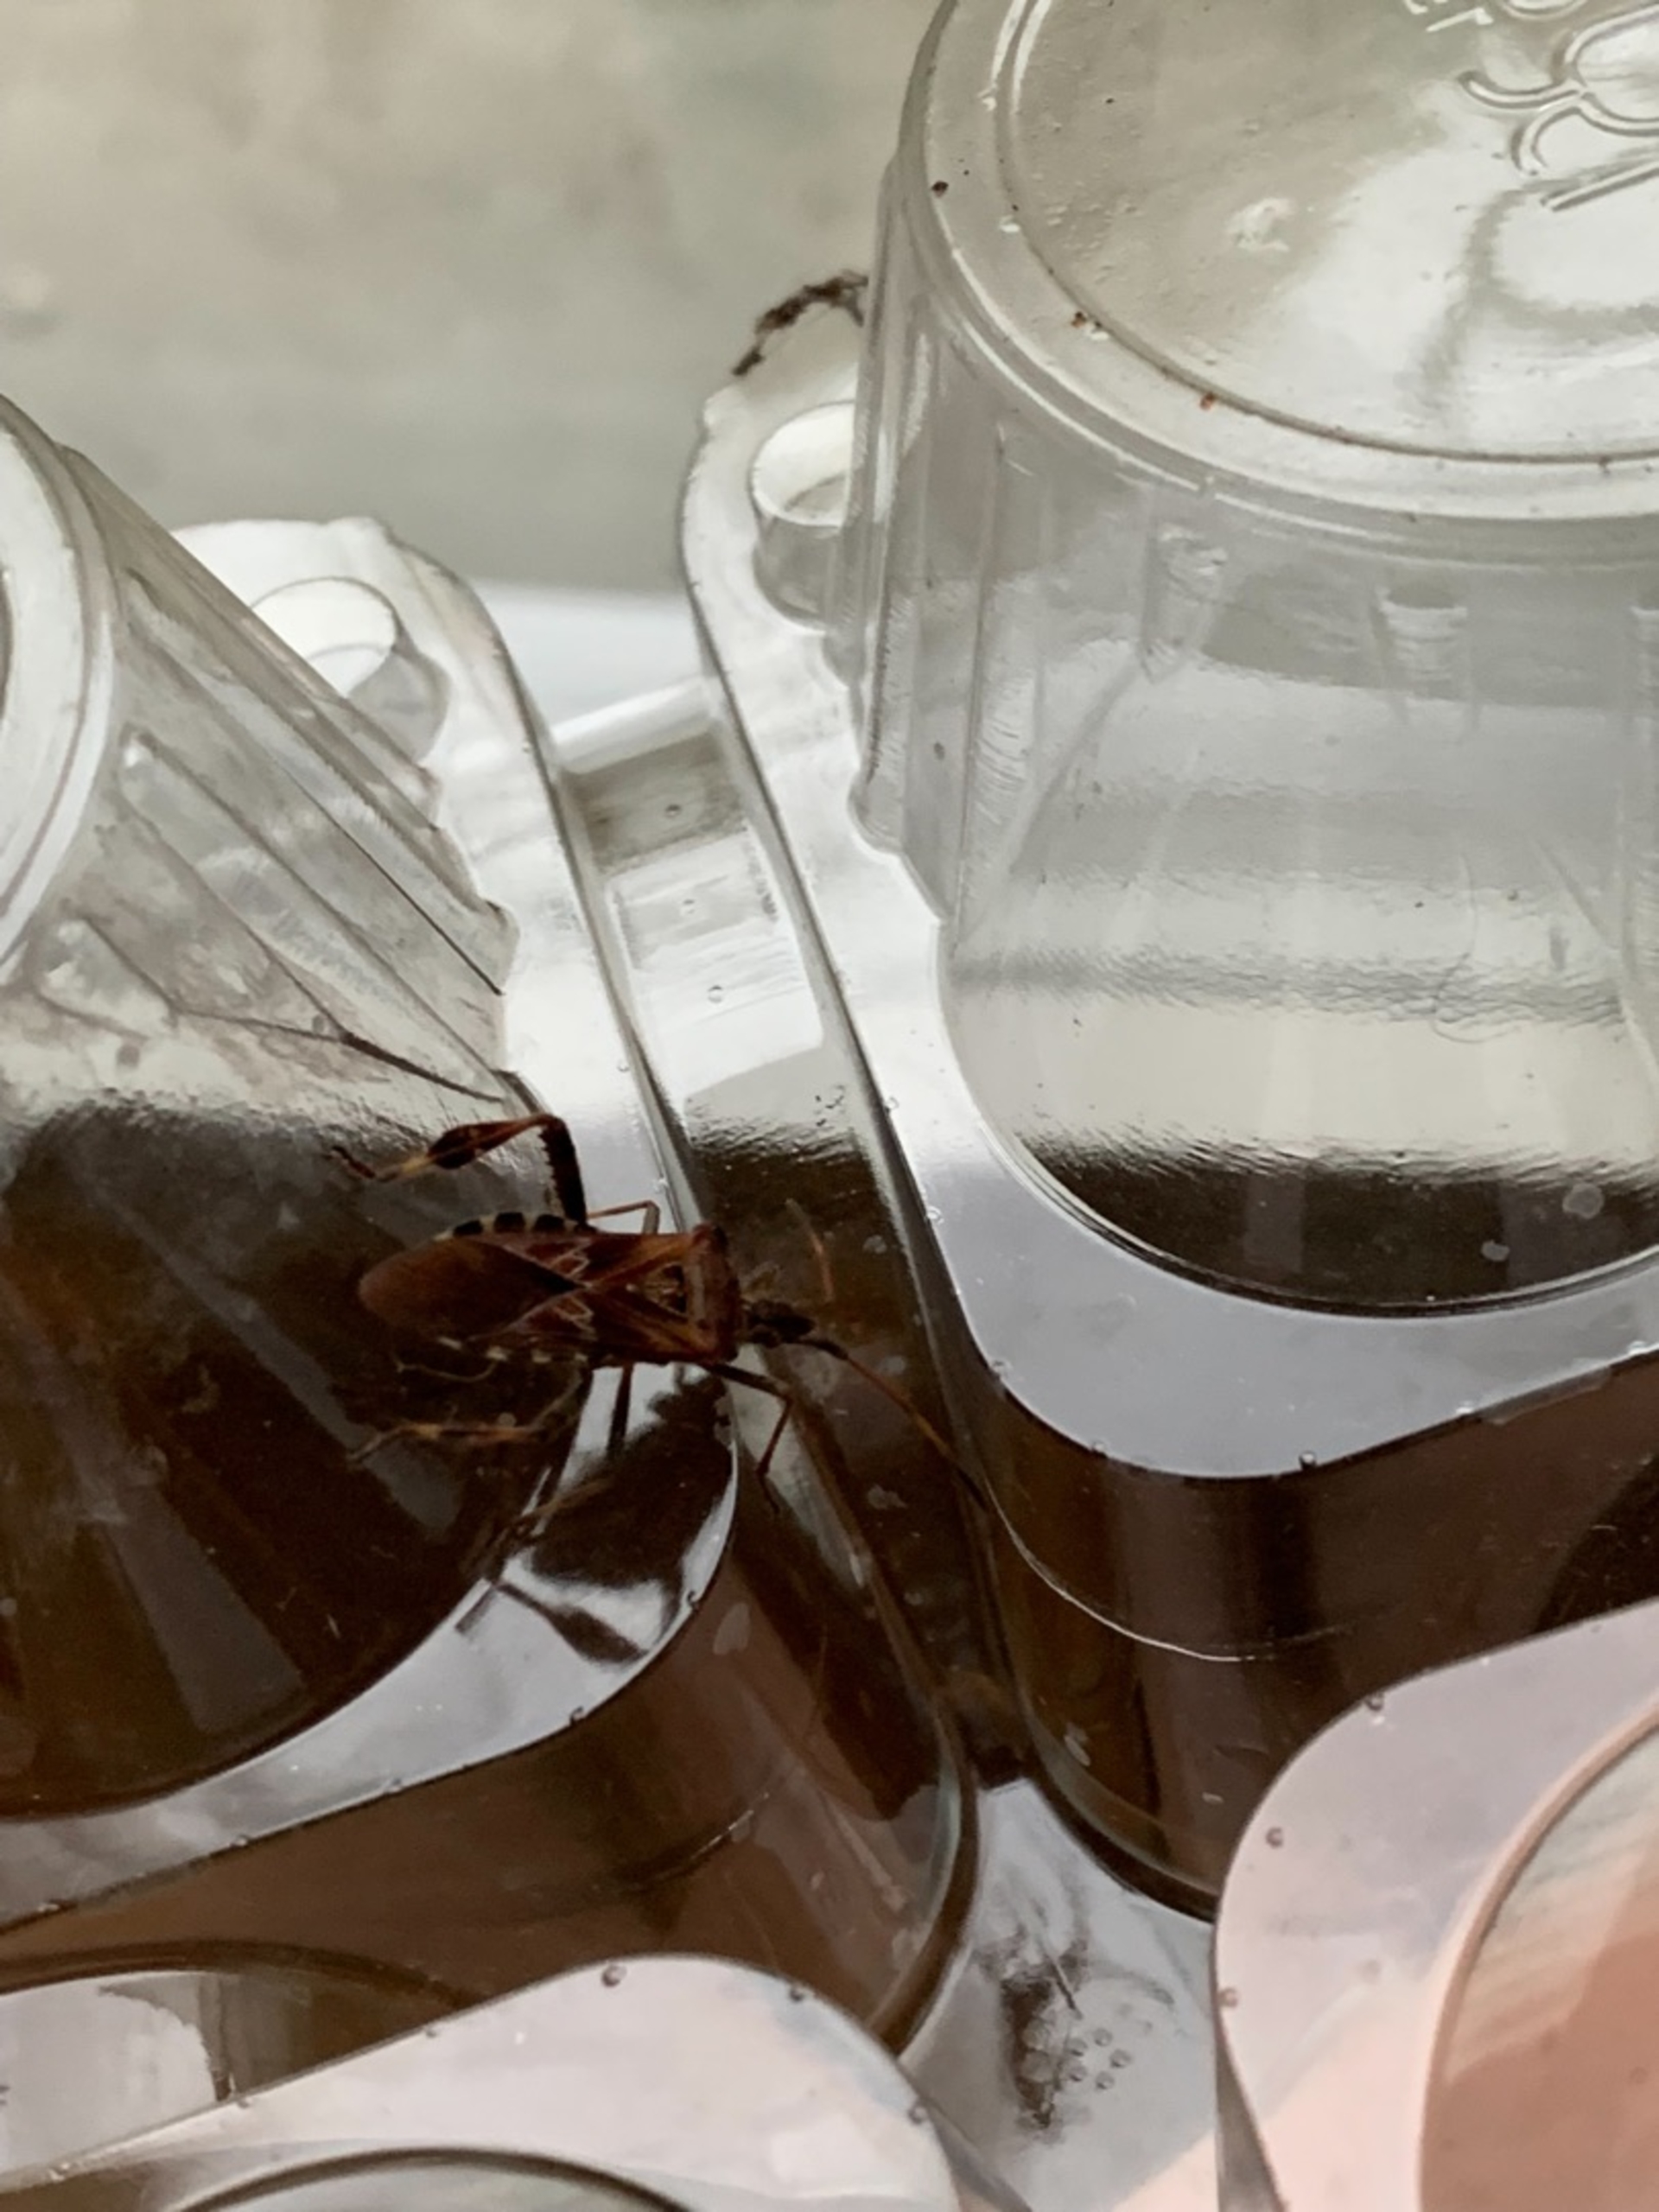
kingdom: Animalia
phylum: Arthropoda
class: Insecta
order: Hemiptera
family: Coreidae
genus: Leptoglossus
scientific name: Leptoglossus occidentalis
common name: Amerikansk fyrretæge
